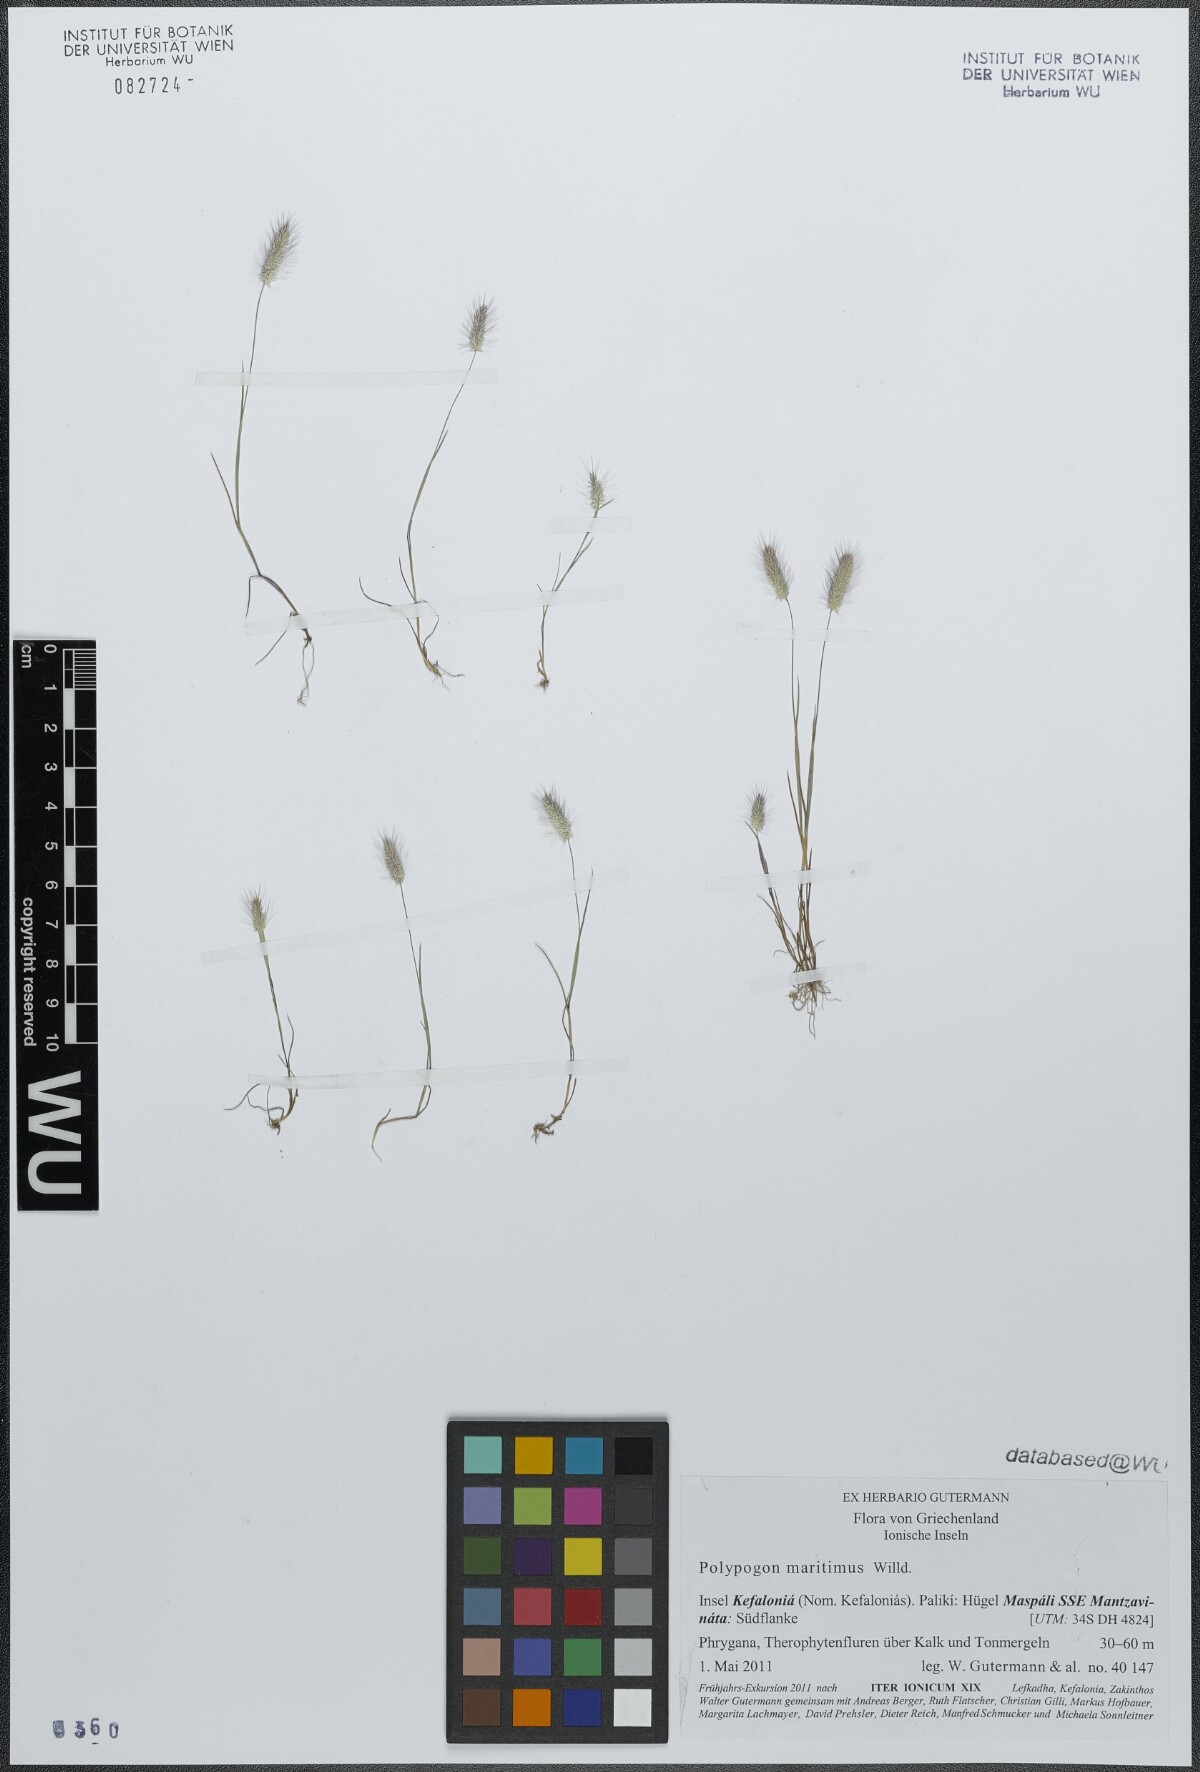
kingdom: Plantae
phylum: Tracheophyta
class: Liliopsida
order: Poales
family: Poaceae
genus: Polypogon
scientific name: Polypogon maritimus
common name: Mediterranean rabbitsfoot grass
